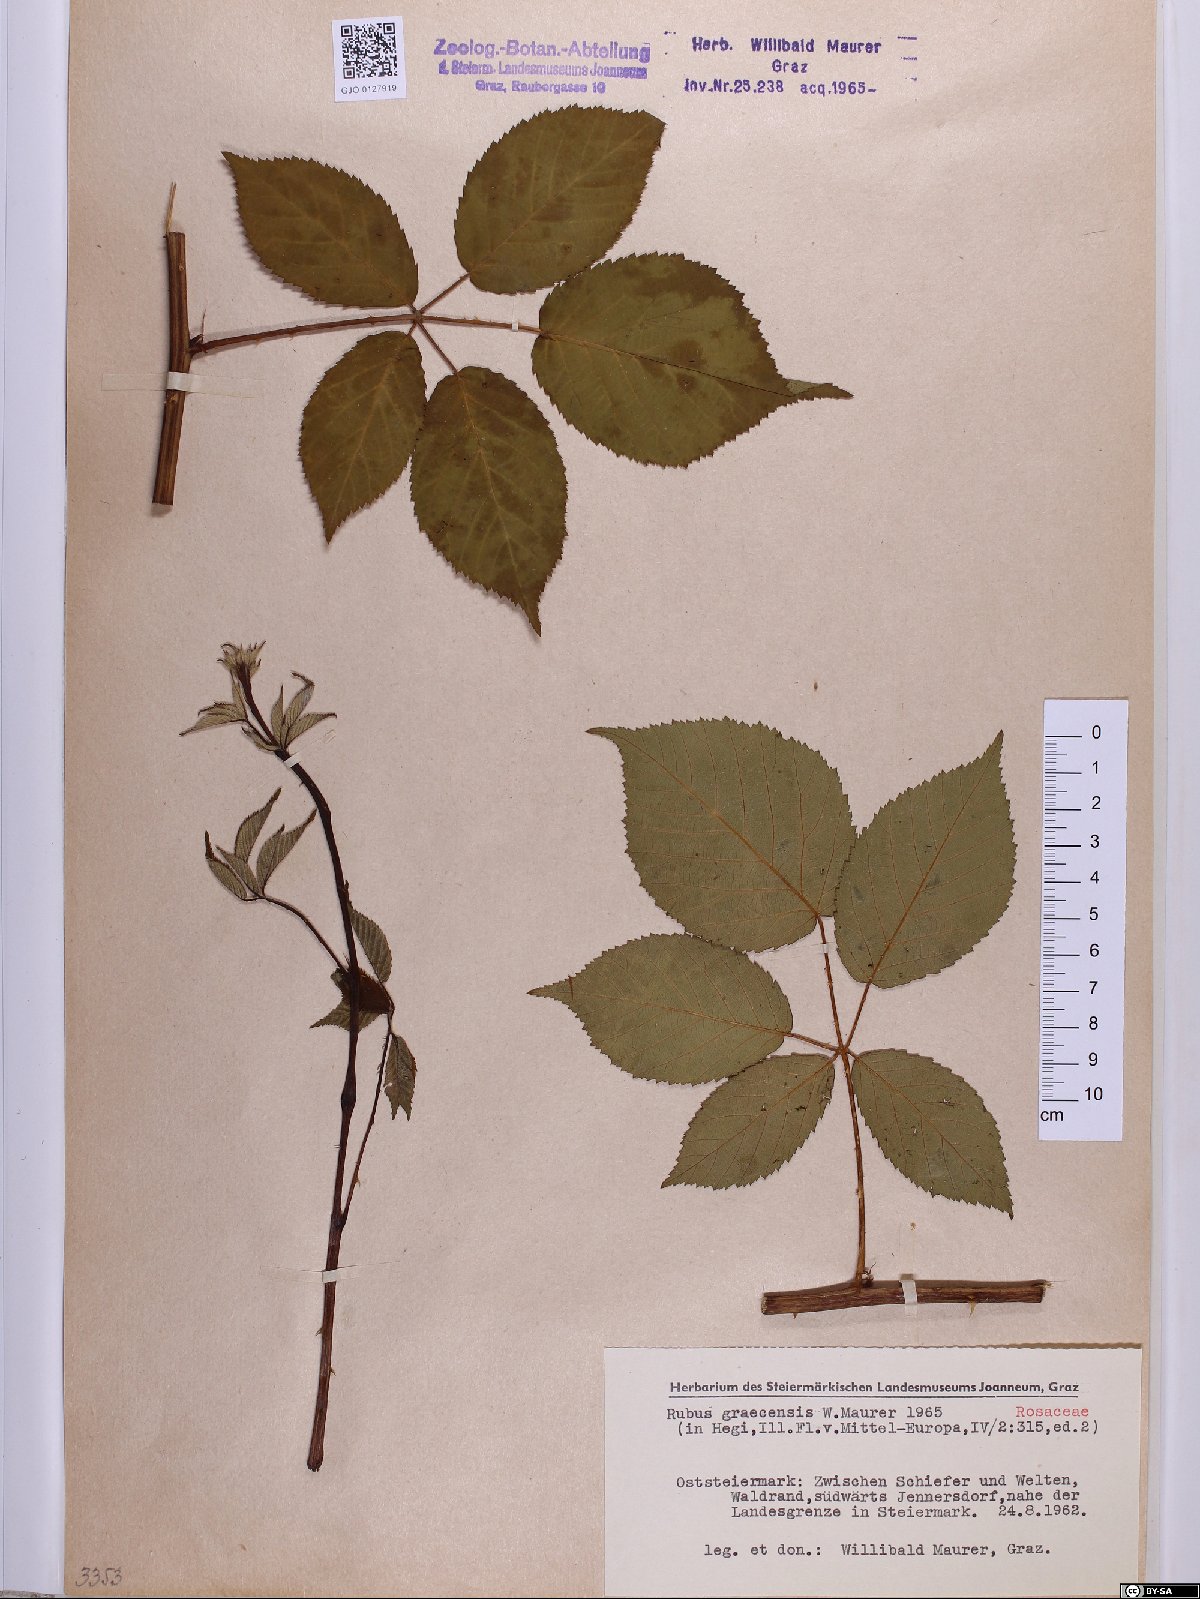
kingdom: Plantae
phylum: Tracheophyta
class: Magnoliopsida
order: Rosales
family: Rosaceae
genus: Rubus
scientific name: Rubus graecensis
